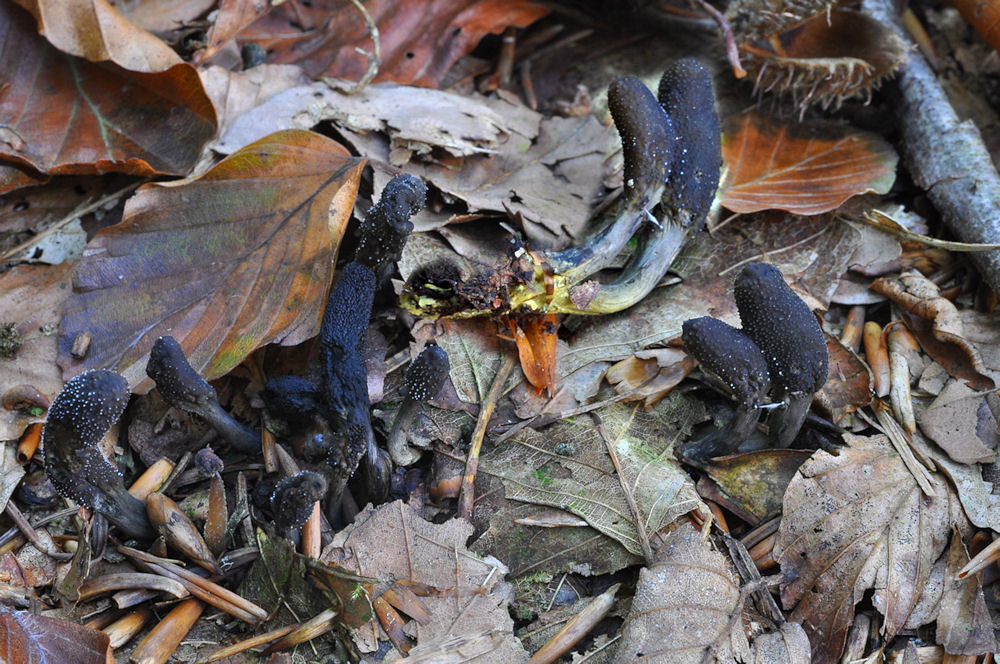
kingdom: Fungi
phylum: Ascomycota
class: Sordariomycetes
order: Hypocreales
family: Ophiocordycipitaceae
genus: Tolypocladium
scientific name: Tolypocladium ophioglossoides
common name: slank snyltekølle
